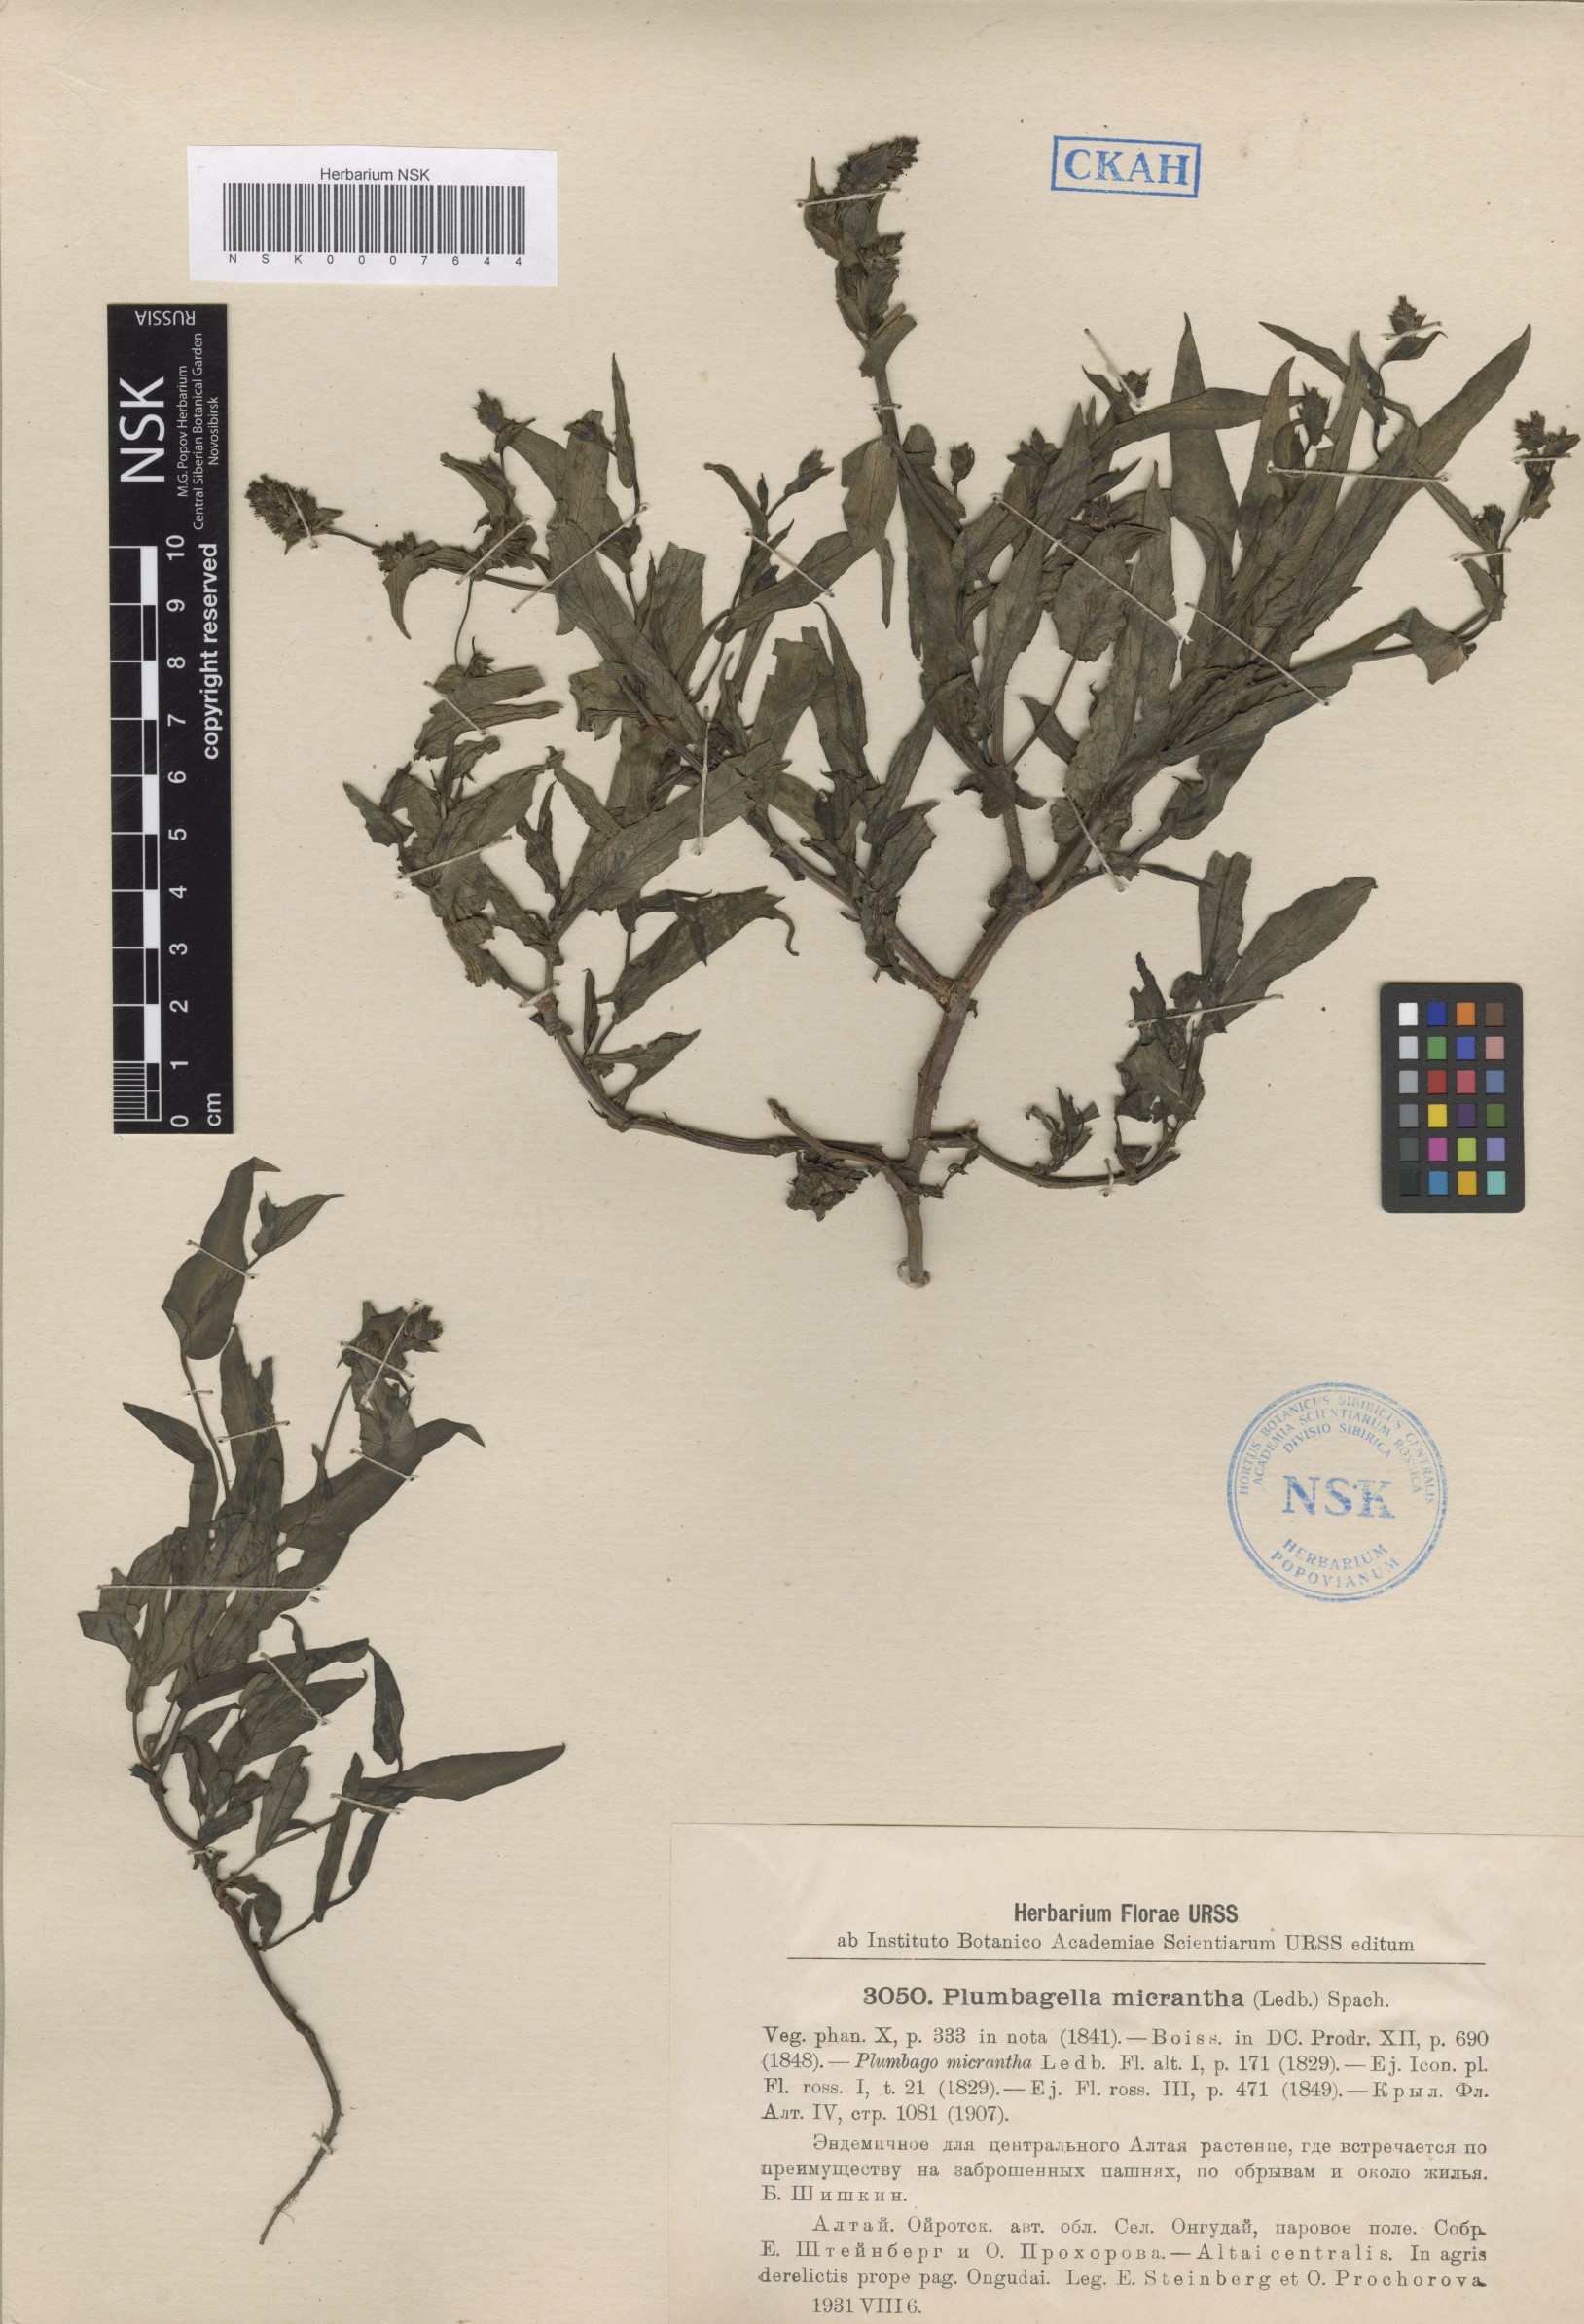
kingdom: Plantae
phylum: Tracheophyta
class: Magnoliopsida
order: Caryophyllales
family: Plumbaginaceae
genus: Plumbagella
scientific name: Plumbagella micrantha
